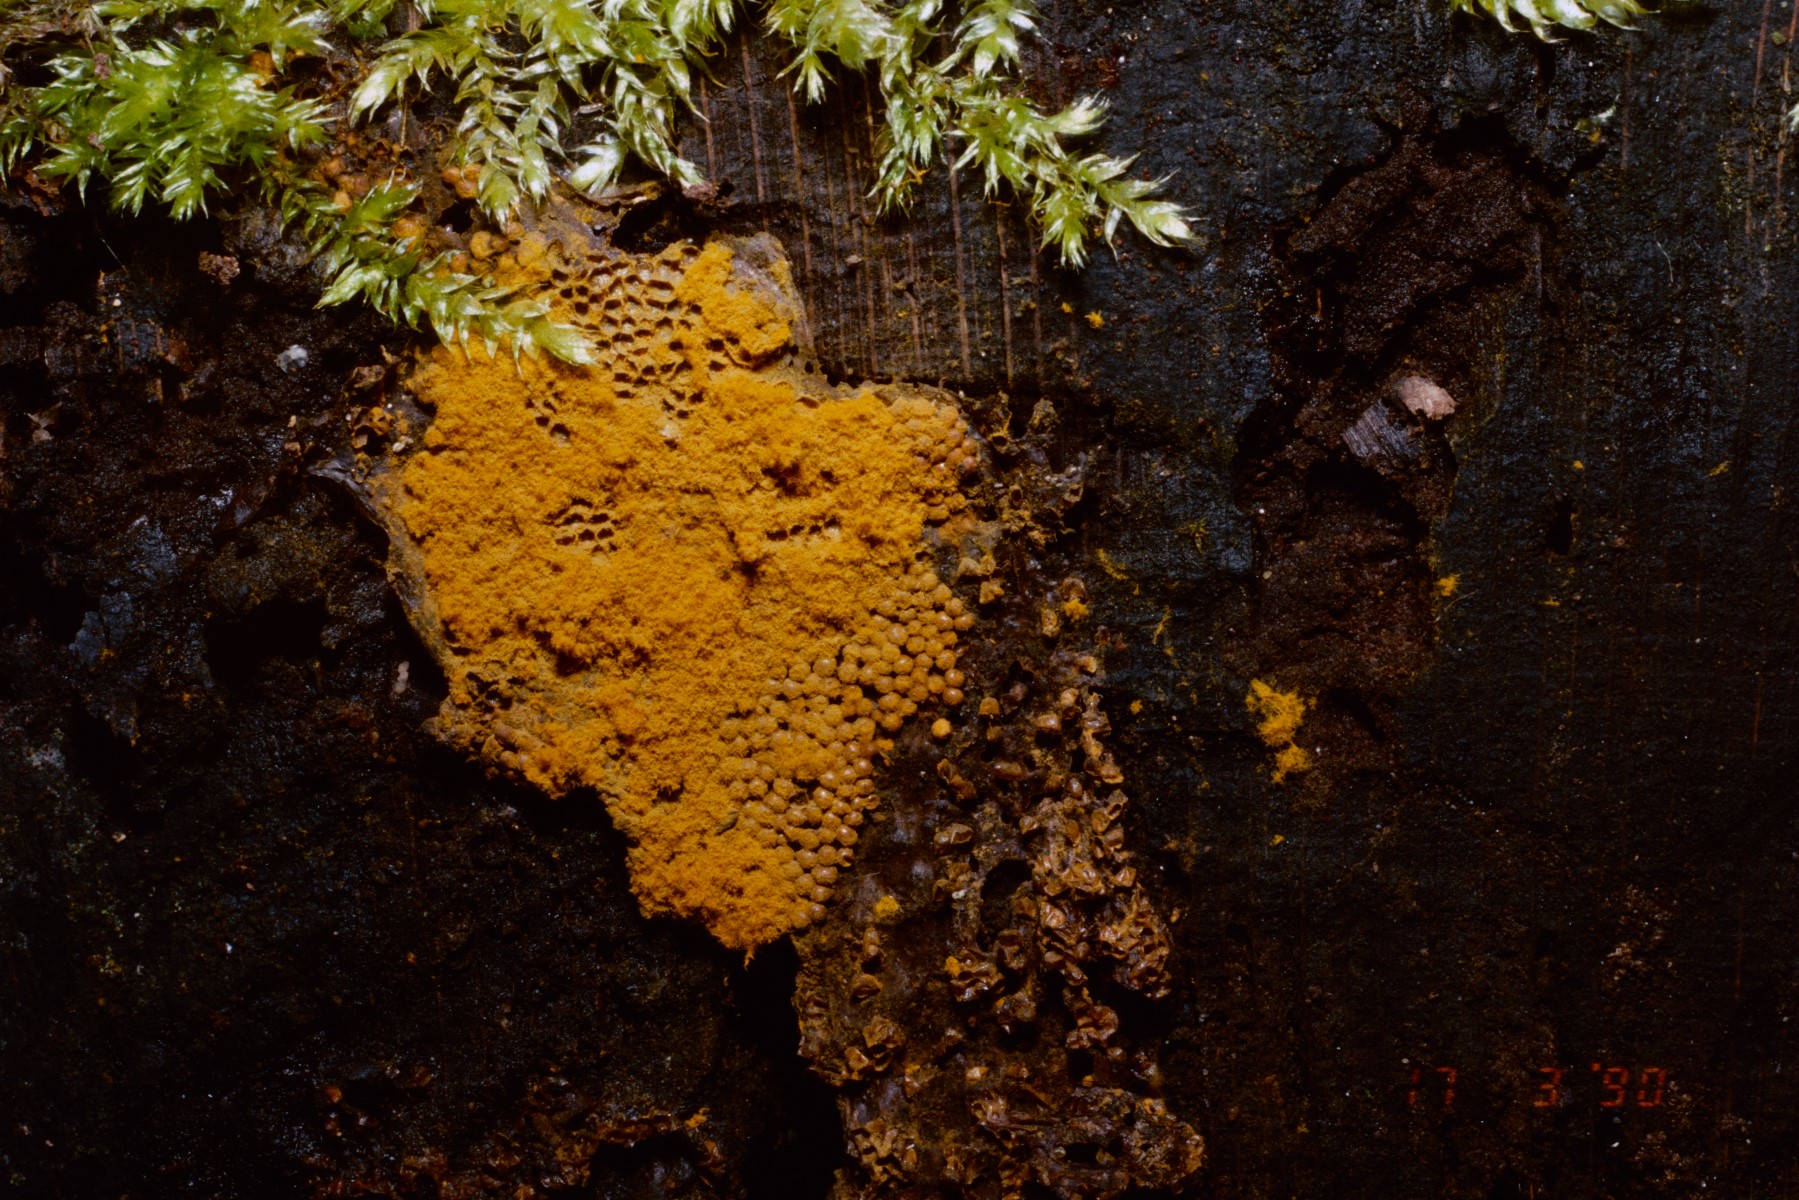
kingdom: Protozoa
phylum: Mycetozoa
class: Myxomycetes
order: Trichiales
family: Trichiaceae
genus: Trichia
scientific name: Trichia
